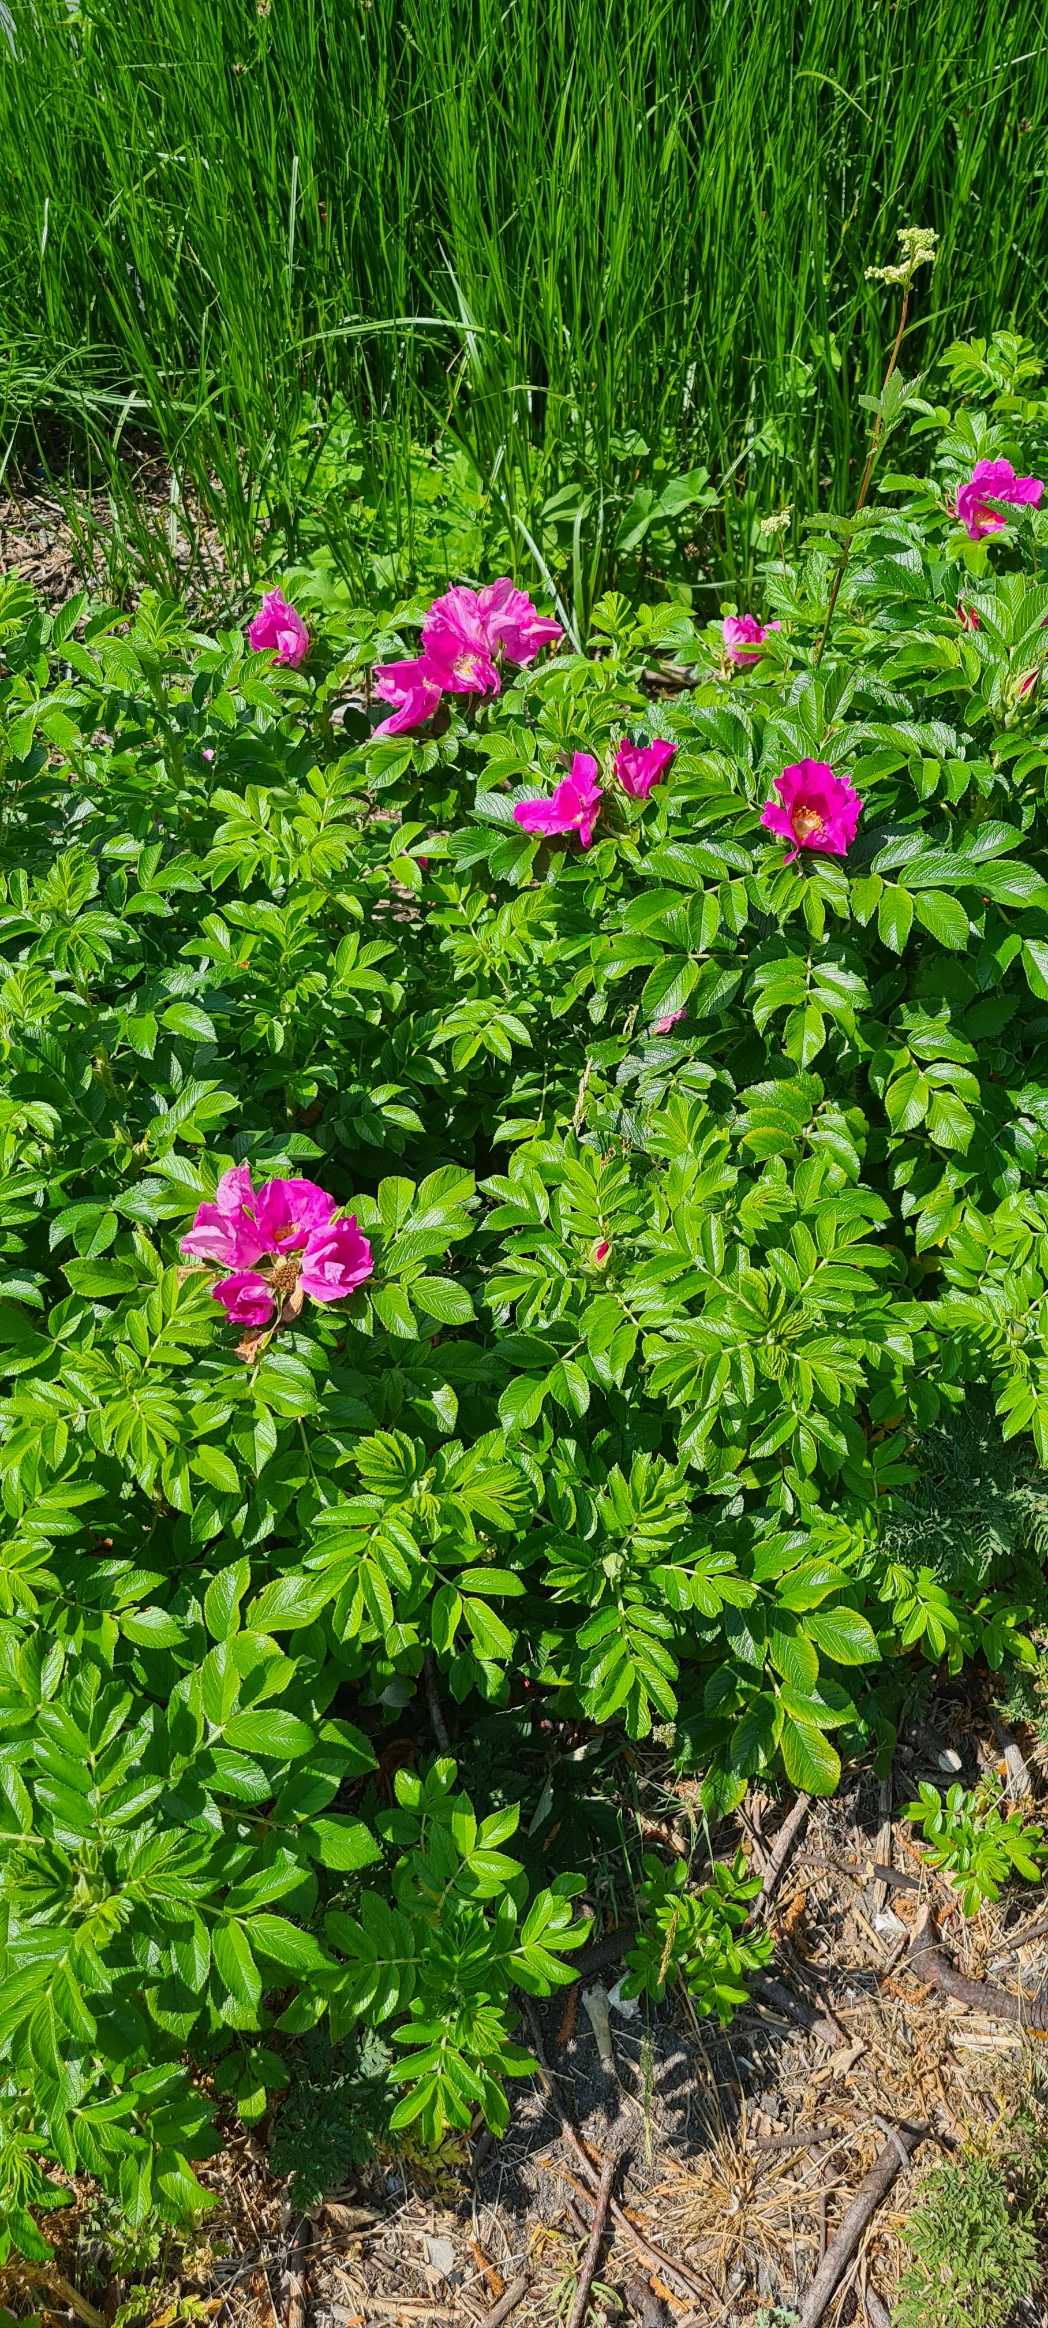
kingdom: Plantae
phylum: Tracheophyta
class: Magnoliopsida
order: Rosales
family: Rosaceae
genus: Rosa
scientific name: Rosa rugosa
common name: Rynket rose
